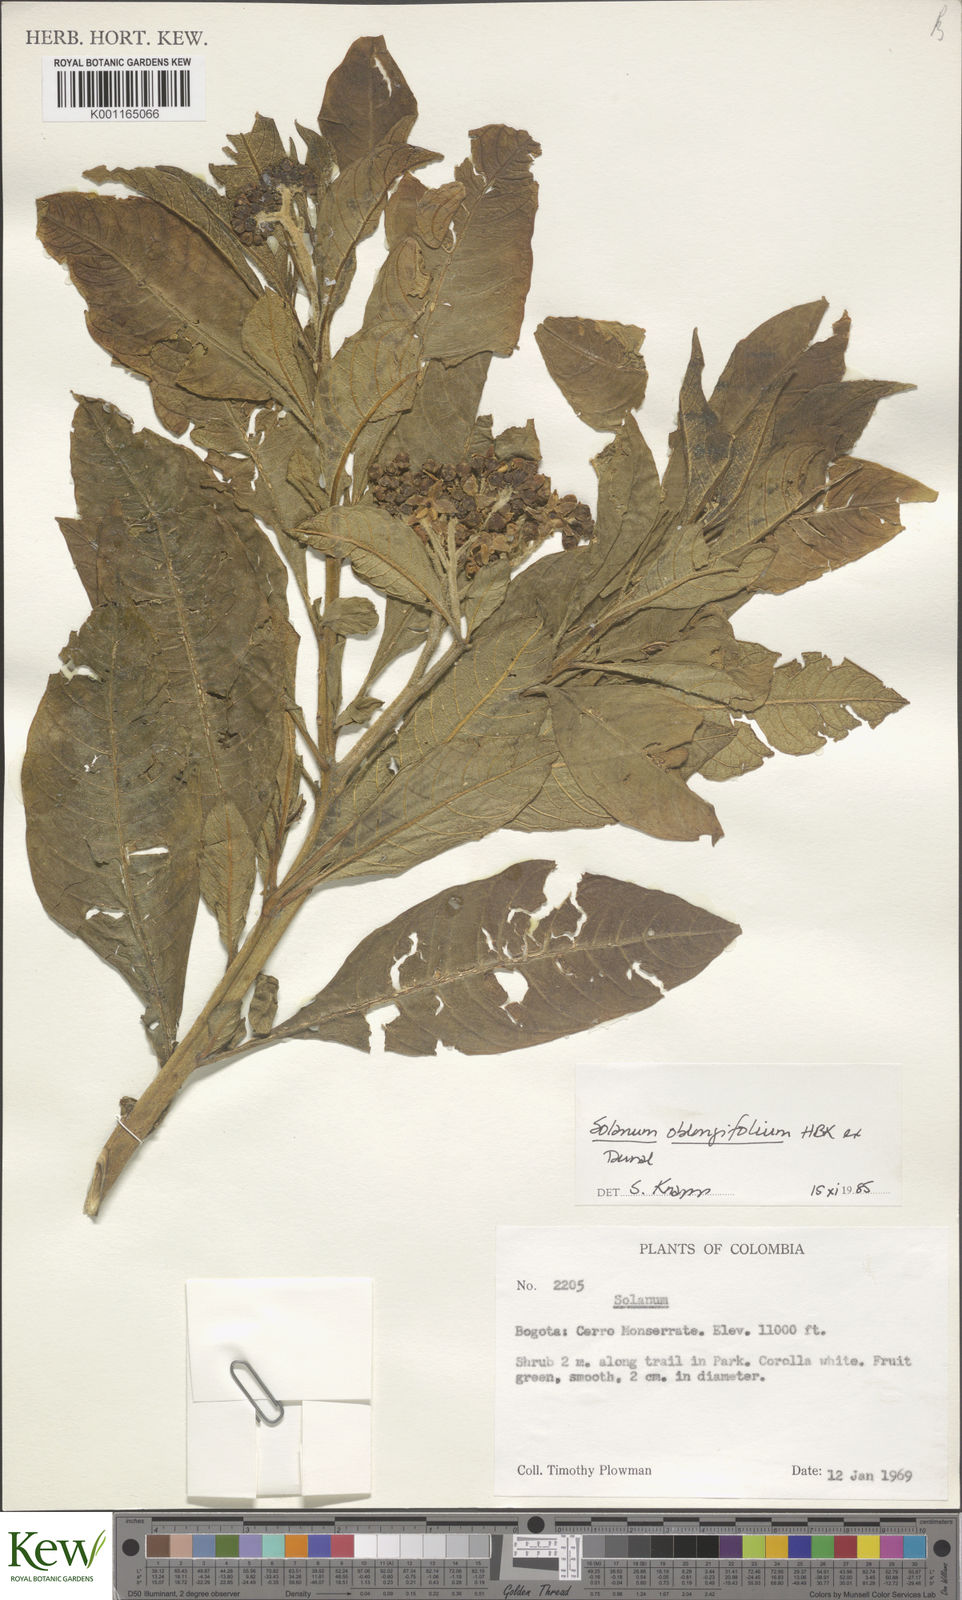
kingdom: Plantae
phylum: Tracheophyta
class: Magnoliopsida
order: Solanales
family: Solanaceae
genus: Solanum
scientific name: Solanum oblongifolium
